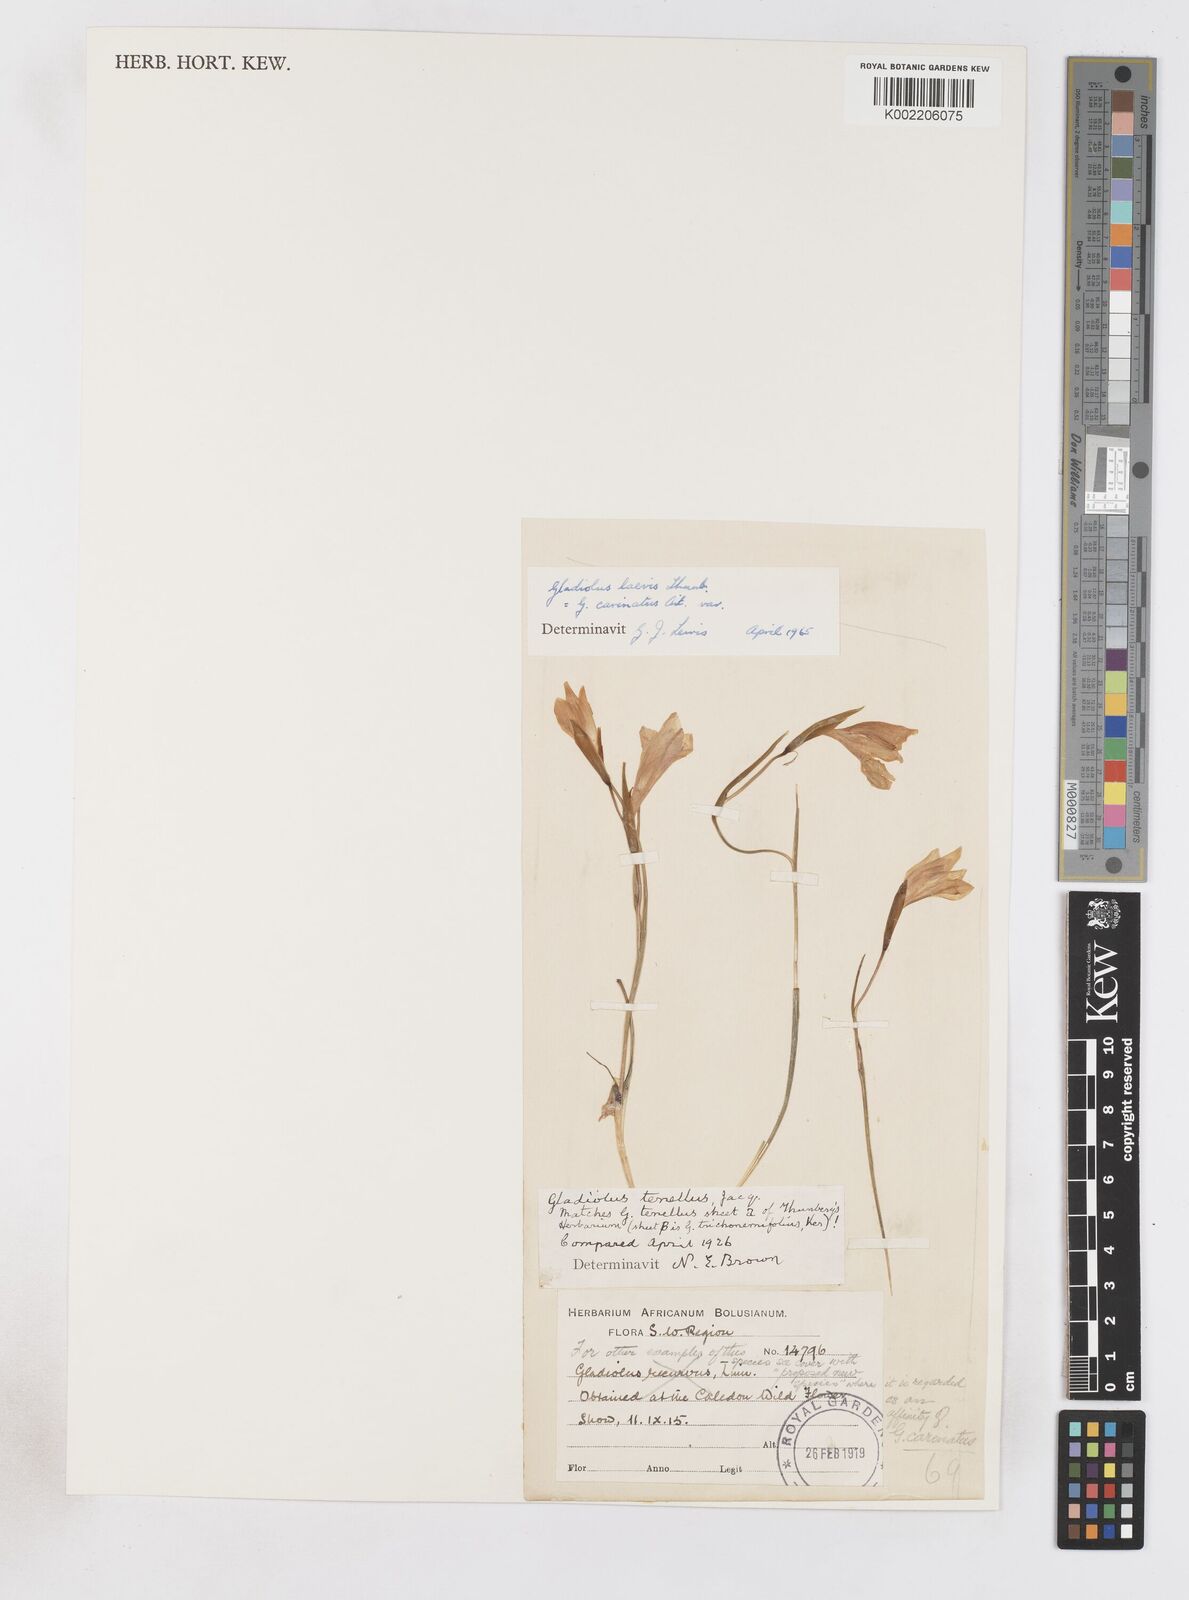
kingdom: Plantae
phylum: Tracheophyta
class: Liliopsida
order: Asparagales
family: Iridaceae
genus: Gladiolus
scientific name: Gladiolus carinatus
